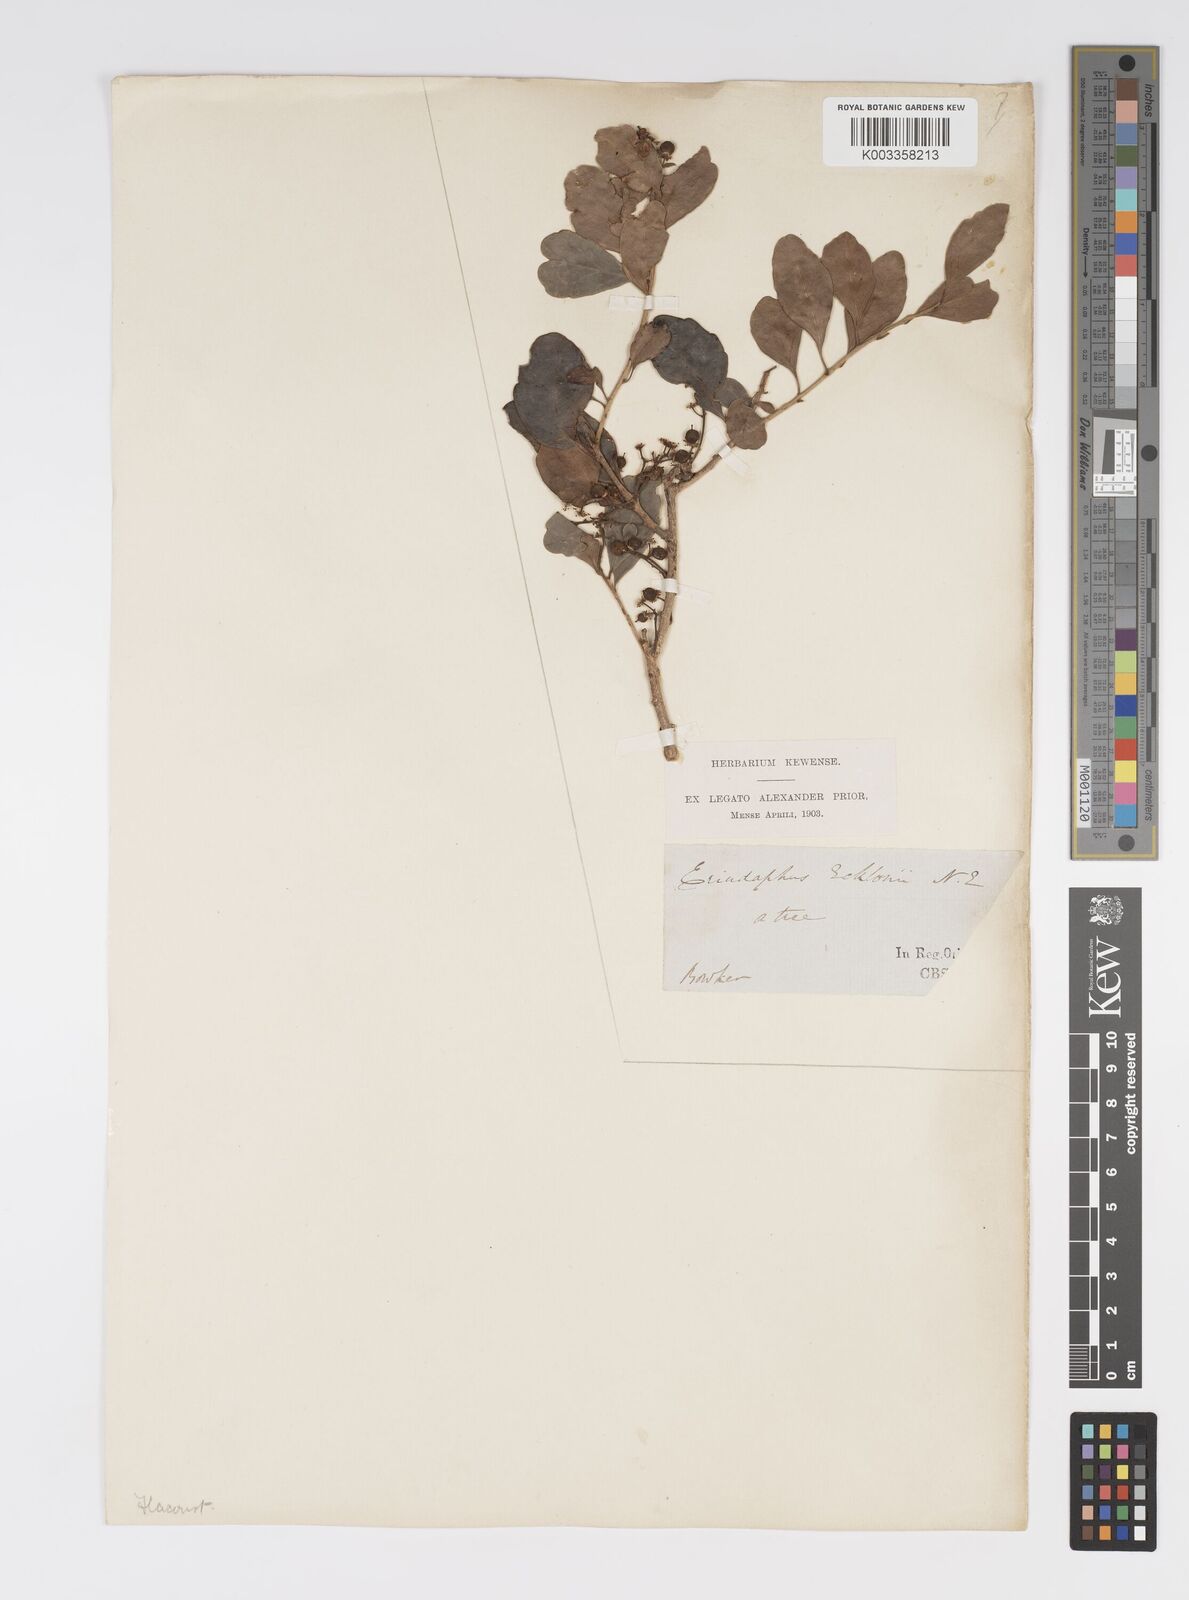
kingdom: Plantae
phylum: Tracheophyta
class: Magnoliopsida
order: Malpighiales
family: Salicaceae
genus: Scolopia
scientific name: Scolopia zeyheri
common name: Thorn pear
